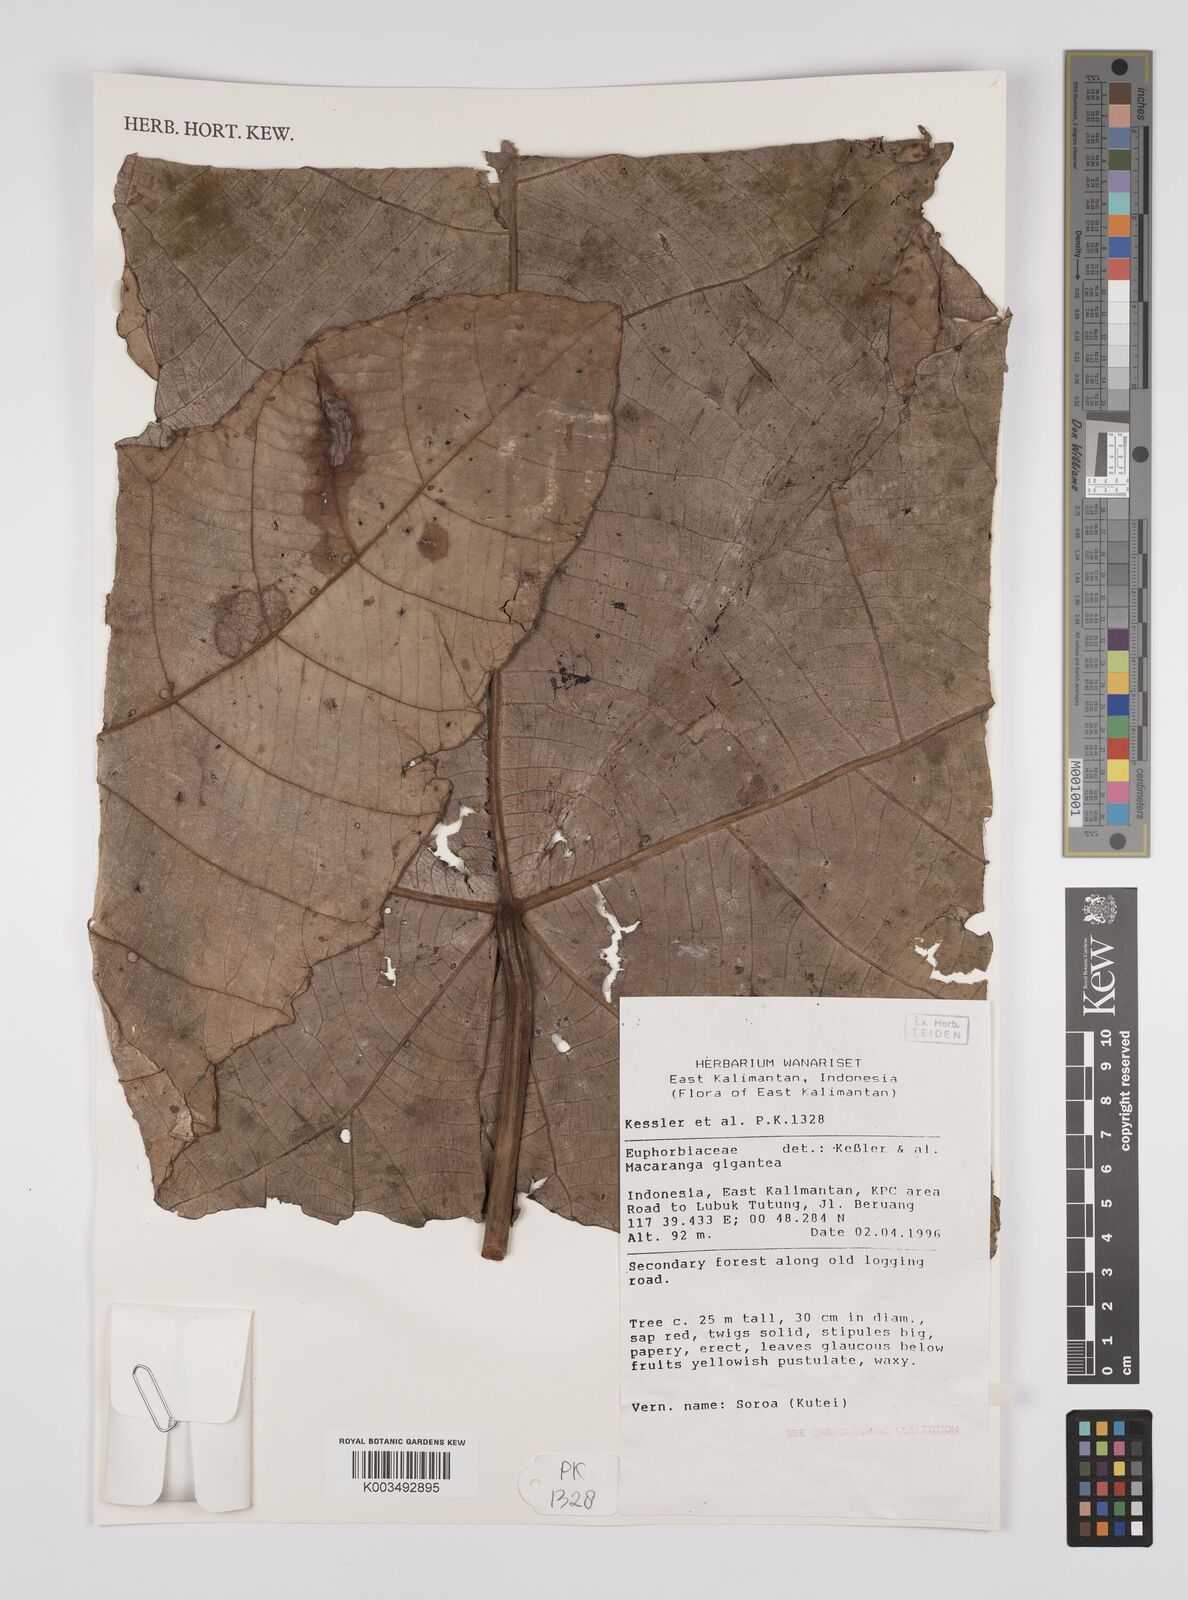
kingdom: Plantae
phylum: Tracheophyta
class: Magnoliopsida
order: Malpighiales
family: Euphorbiaceae
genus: Macaranga
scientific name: Macaranga gigantea
